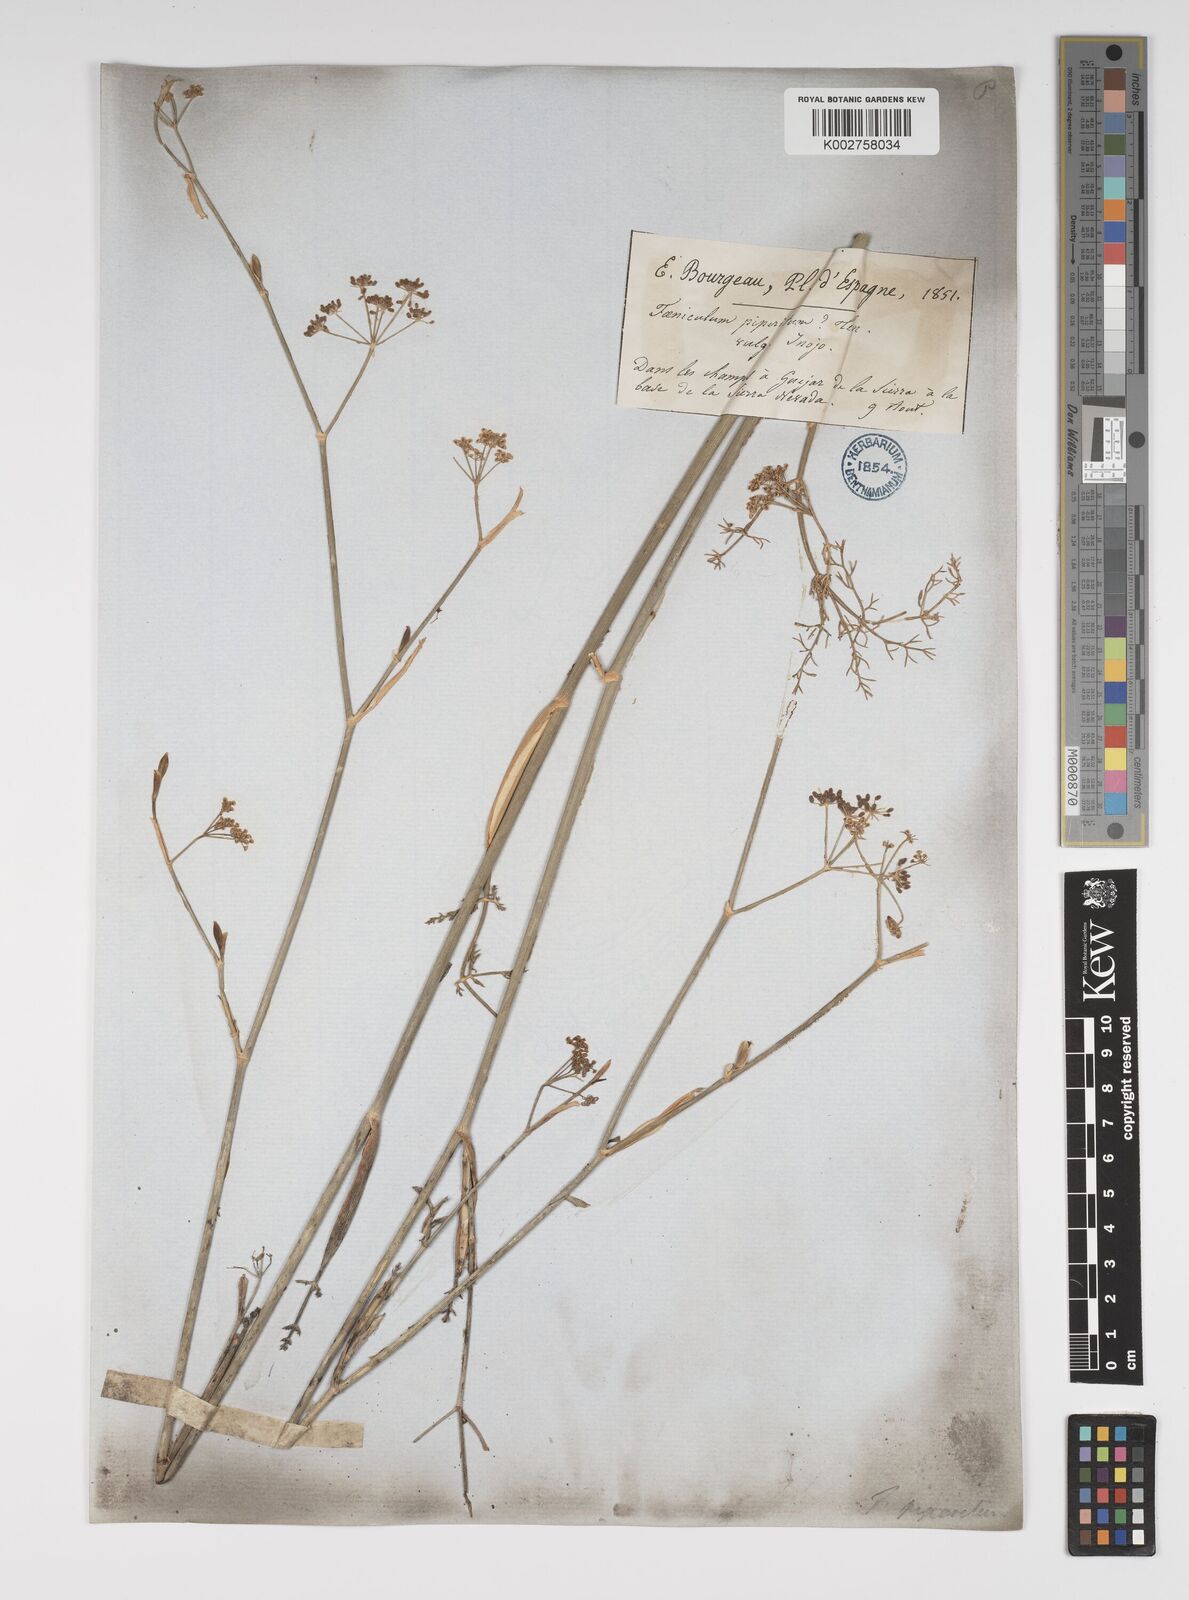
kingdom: Plantae
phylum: Tracheophyta
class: Magnoliopsida
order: Apiales
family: Apiaceae
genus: Foeniculum
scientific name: Foeniculum vulgare
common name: Fennel
